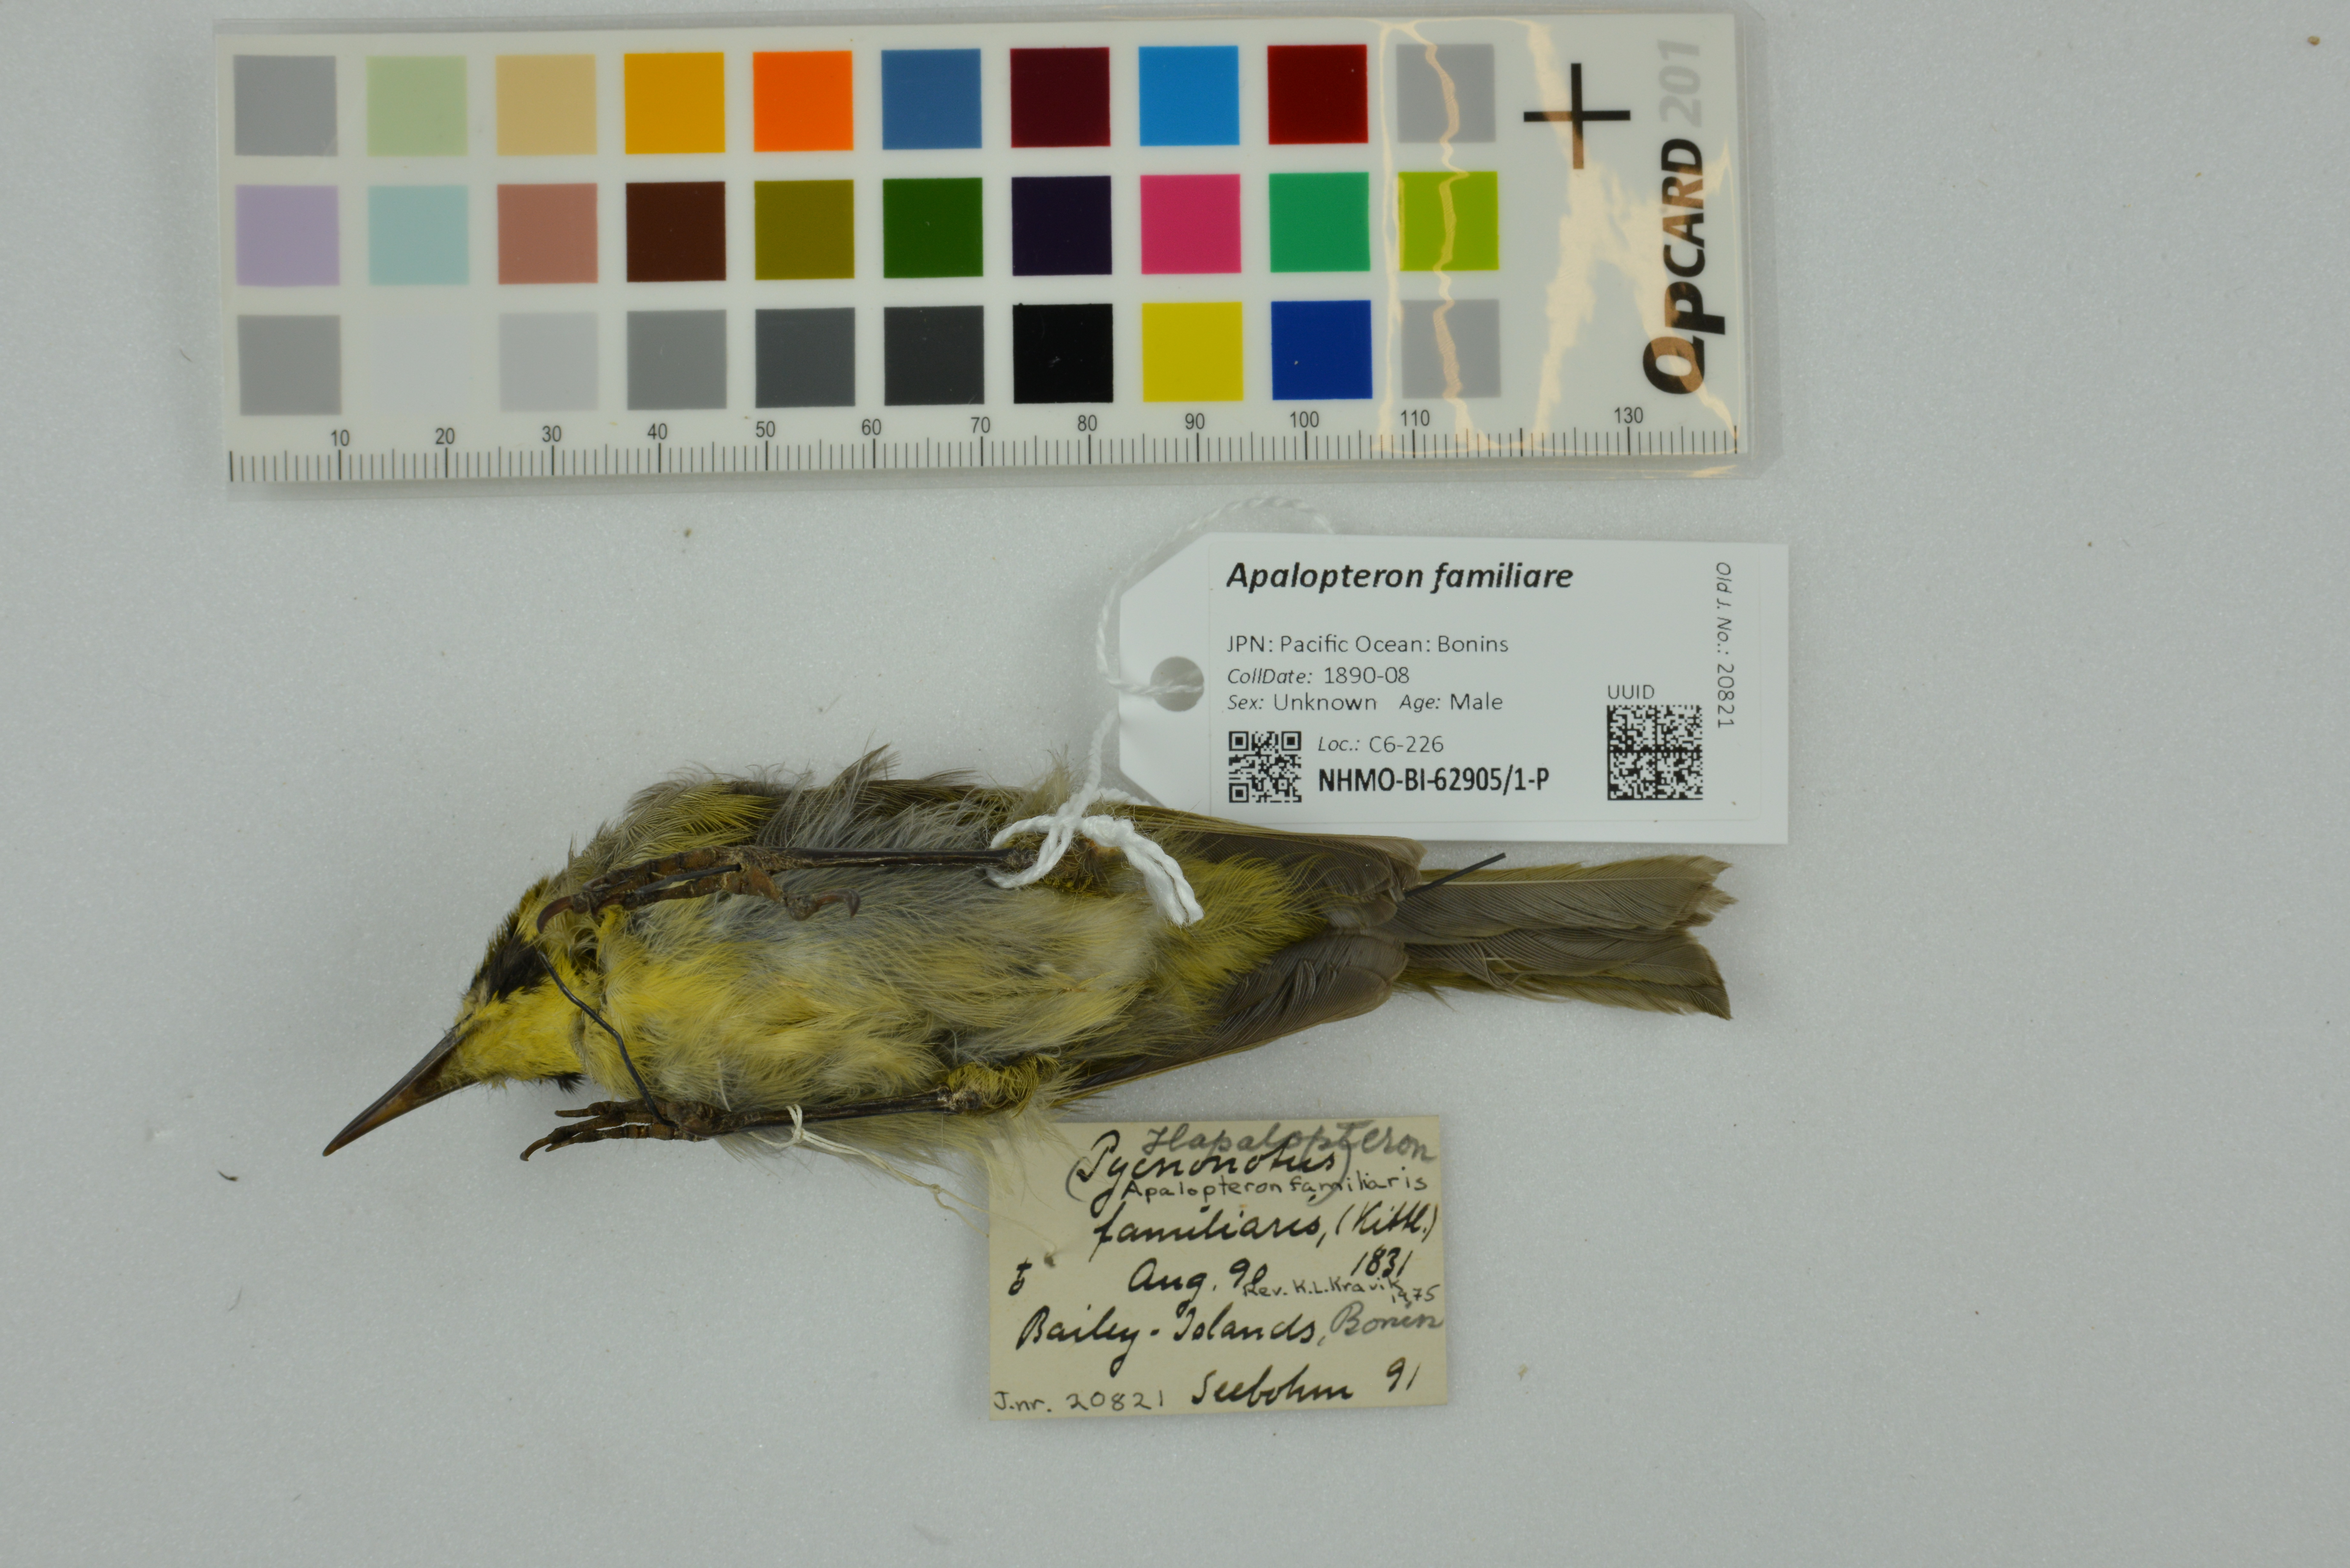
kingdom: Animalia
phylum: Chordata
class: Aves
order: Passeriformes
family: Zosteropidae
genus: Apalopteron
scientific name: Apalopteron familiare
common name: Bonin white-eye
